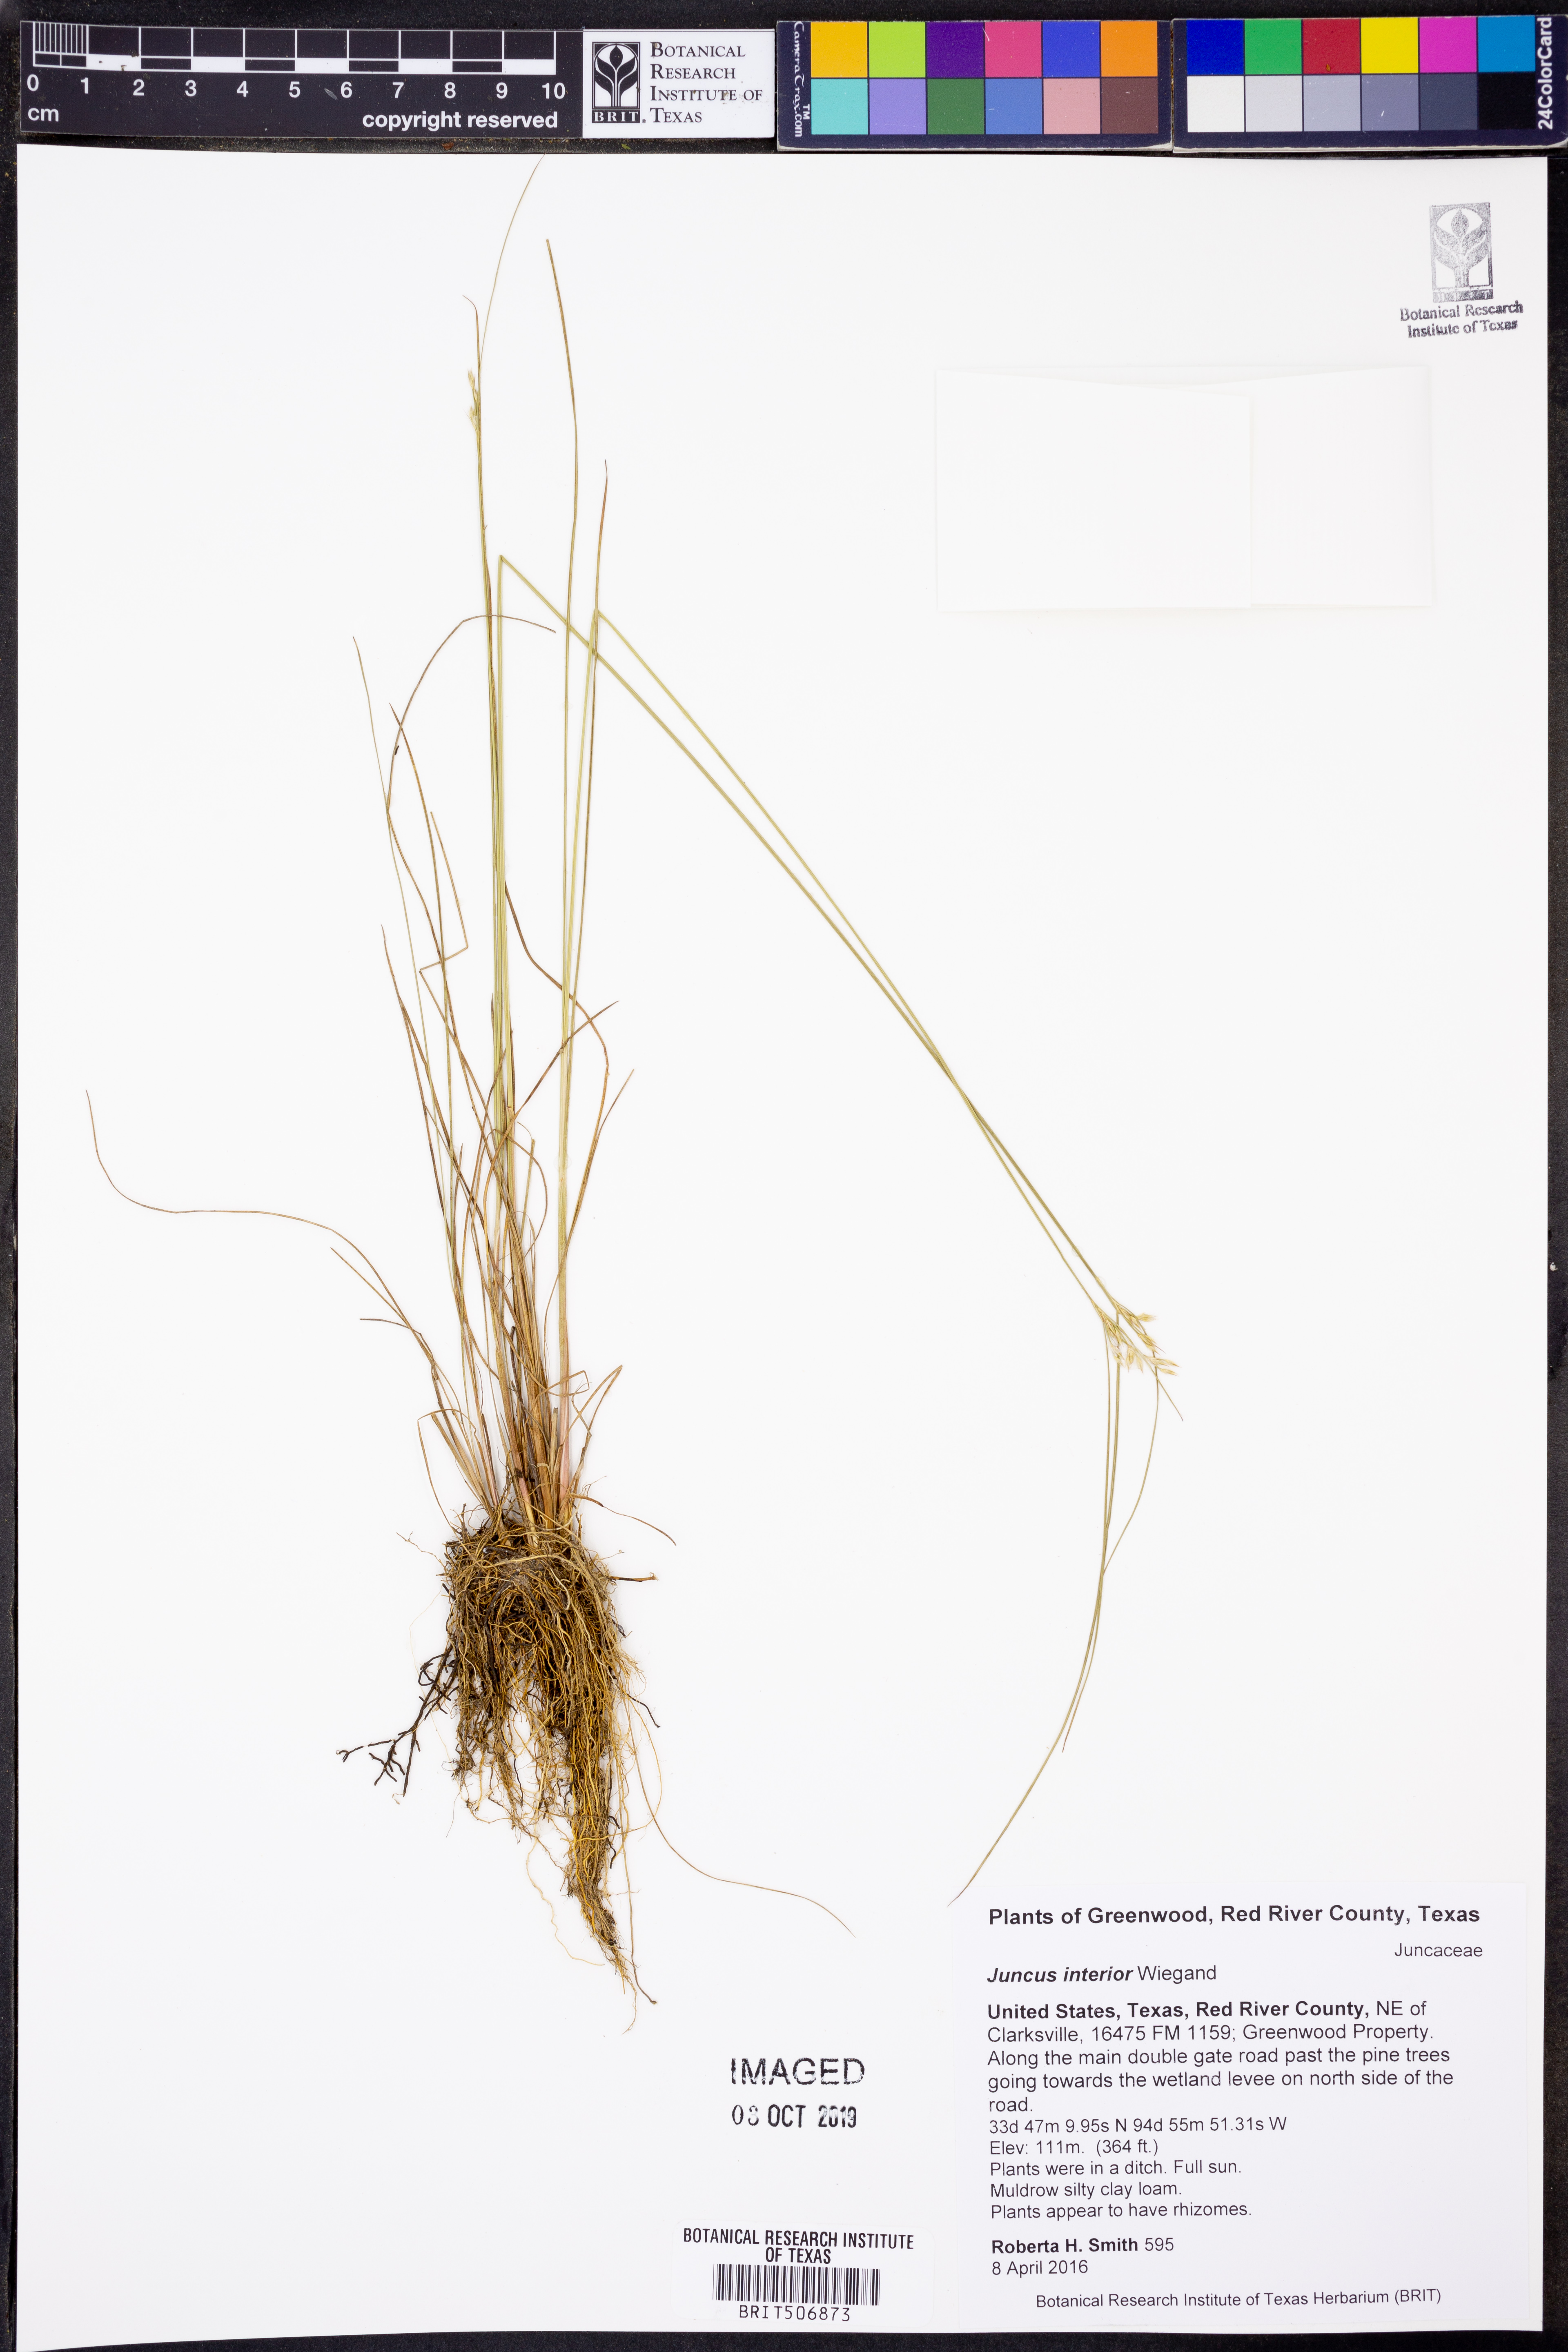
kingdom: Plantae
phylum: Tracheophyta
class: Liliopsida
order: Poales
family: Juncaceae
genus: Juncus
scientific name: Juncus interior
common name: Interior rush
